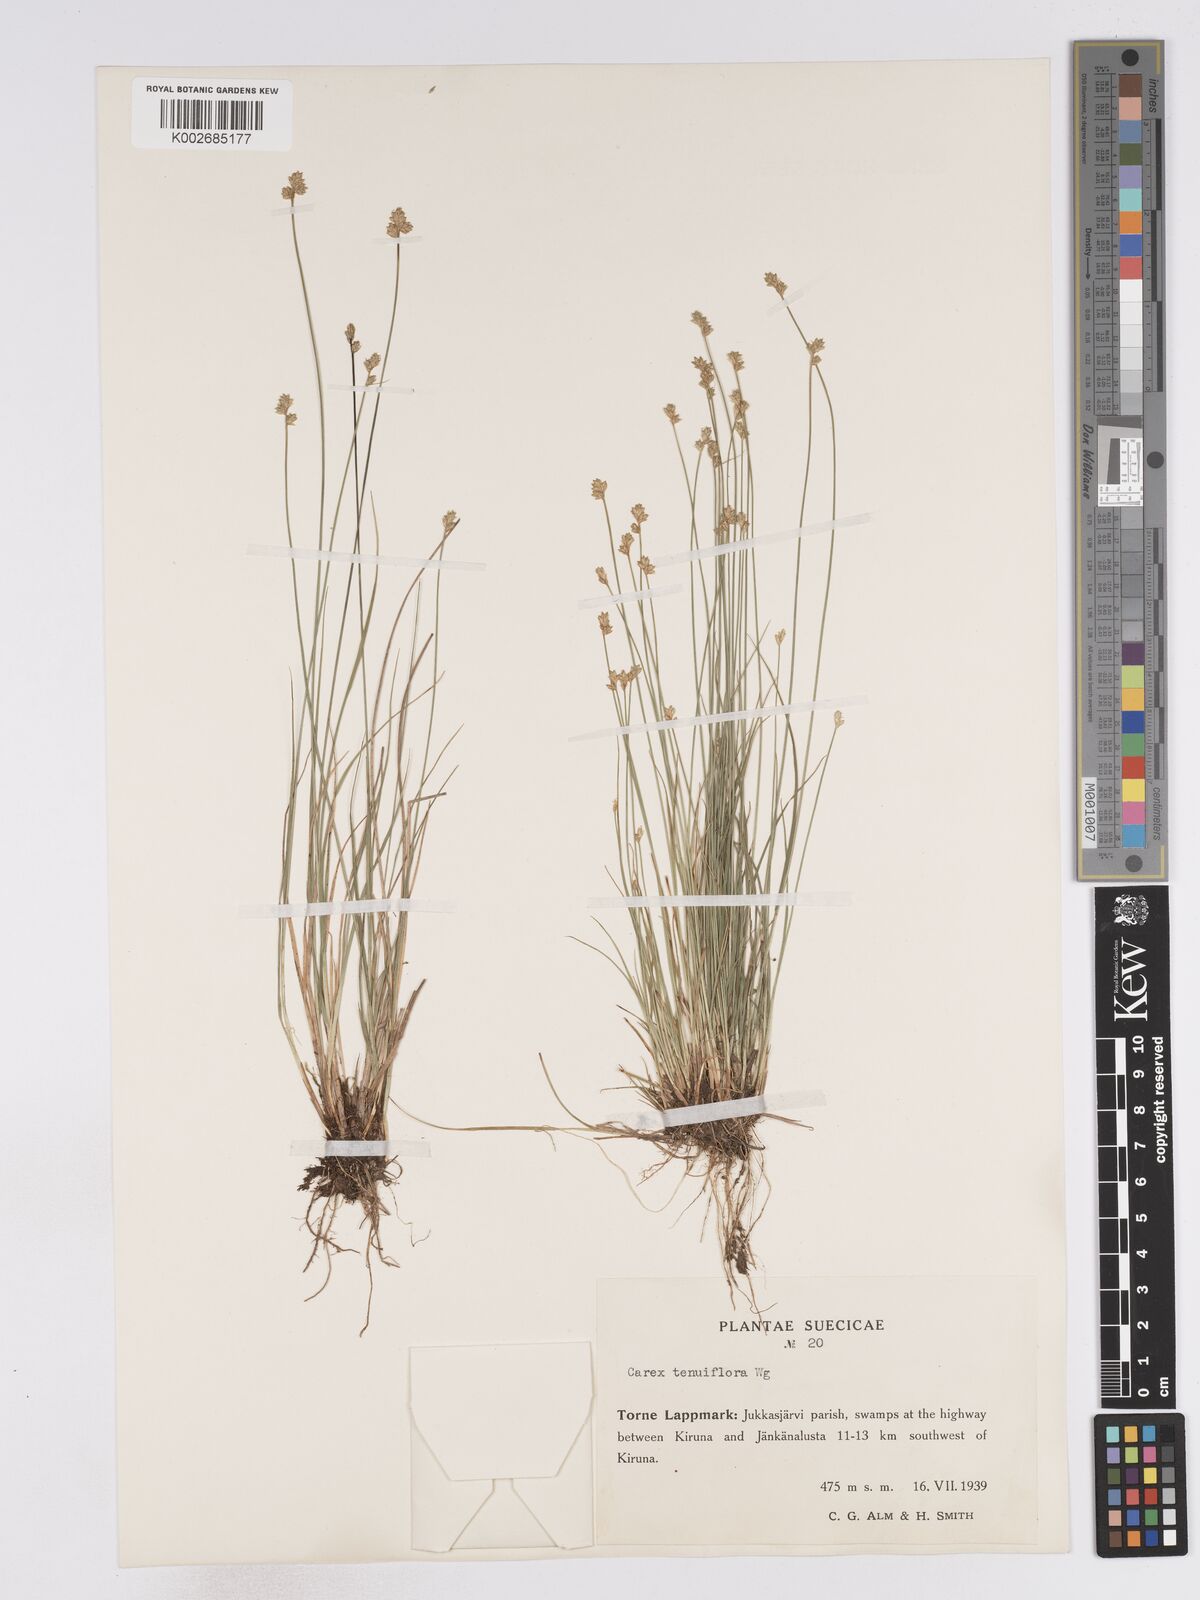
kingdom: Plantae
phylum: Tracheophyta
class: Liliopsida
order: Poales
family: Cyperaceae
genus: Carex
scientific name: Carex tenuiflora
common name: Sparse-flowered sedge
